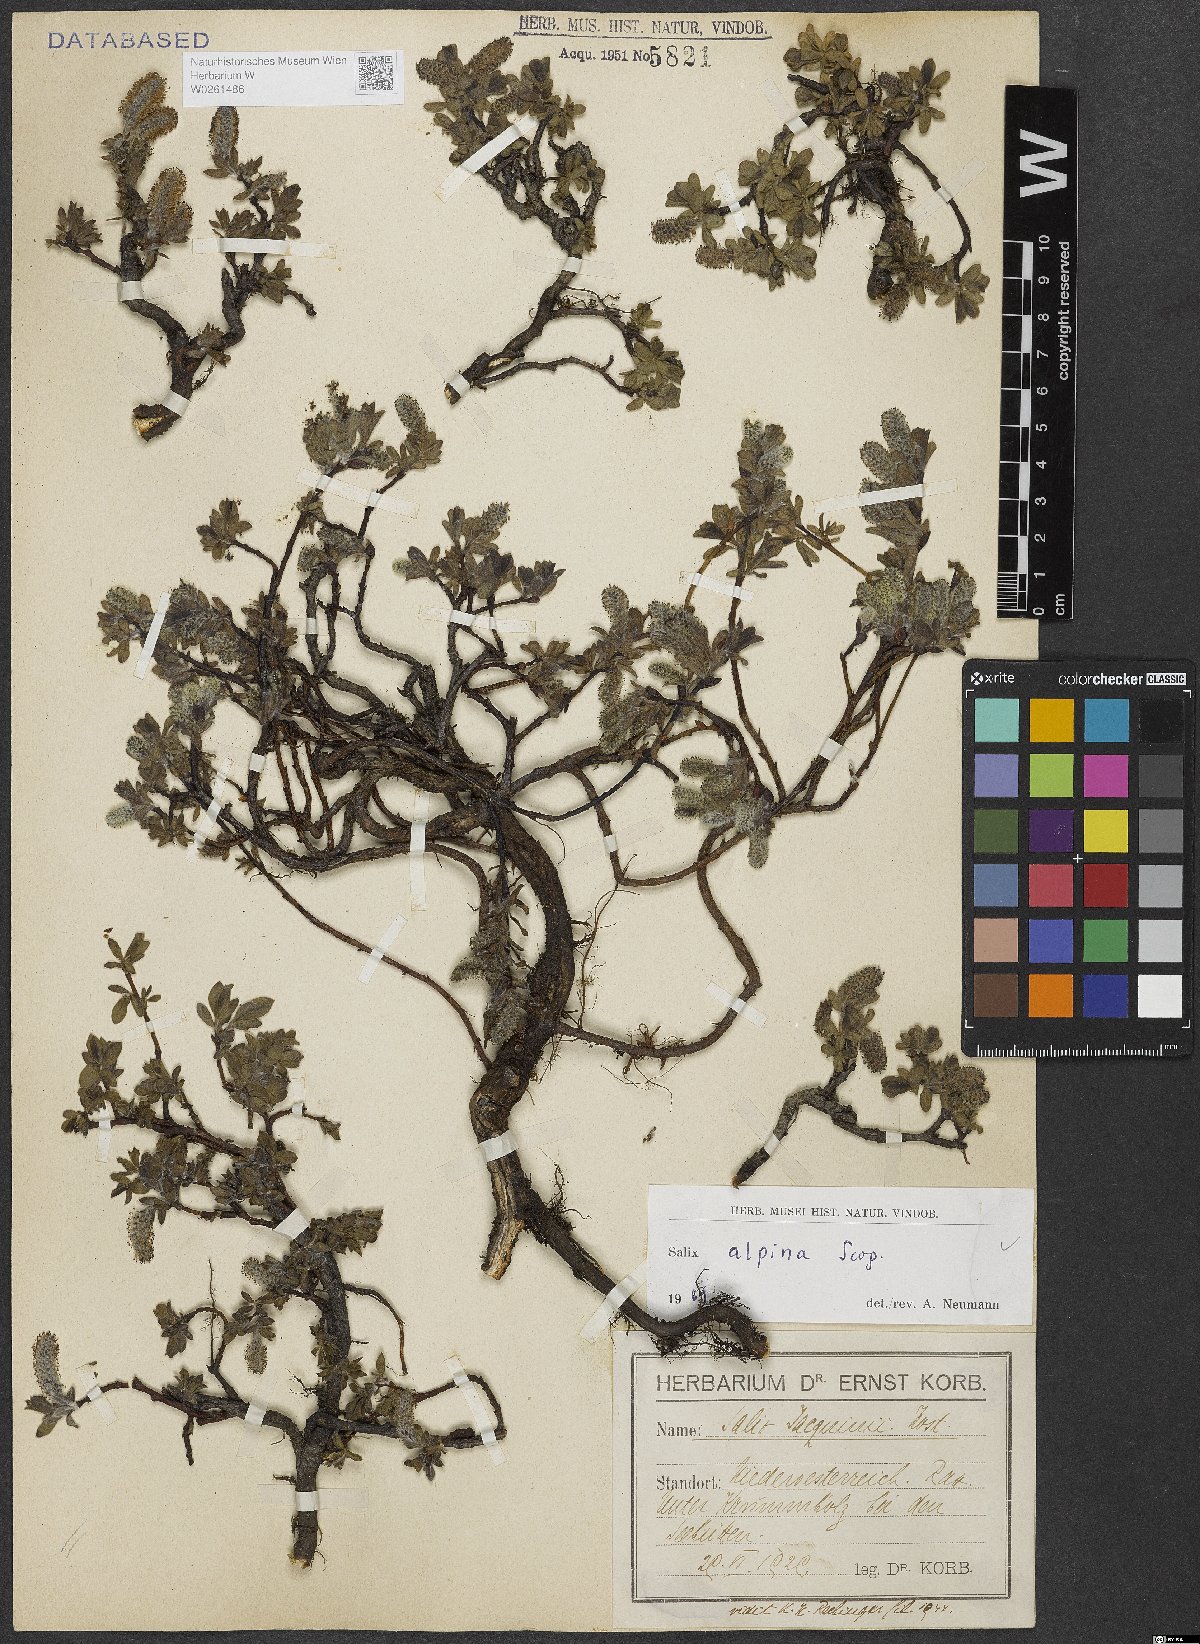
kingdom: Plantae
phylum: Tracheophyta
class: Magnoliopsida
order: Malpighiales
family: Salicaceae
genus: Salix
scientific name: Salix alpina
